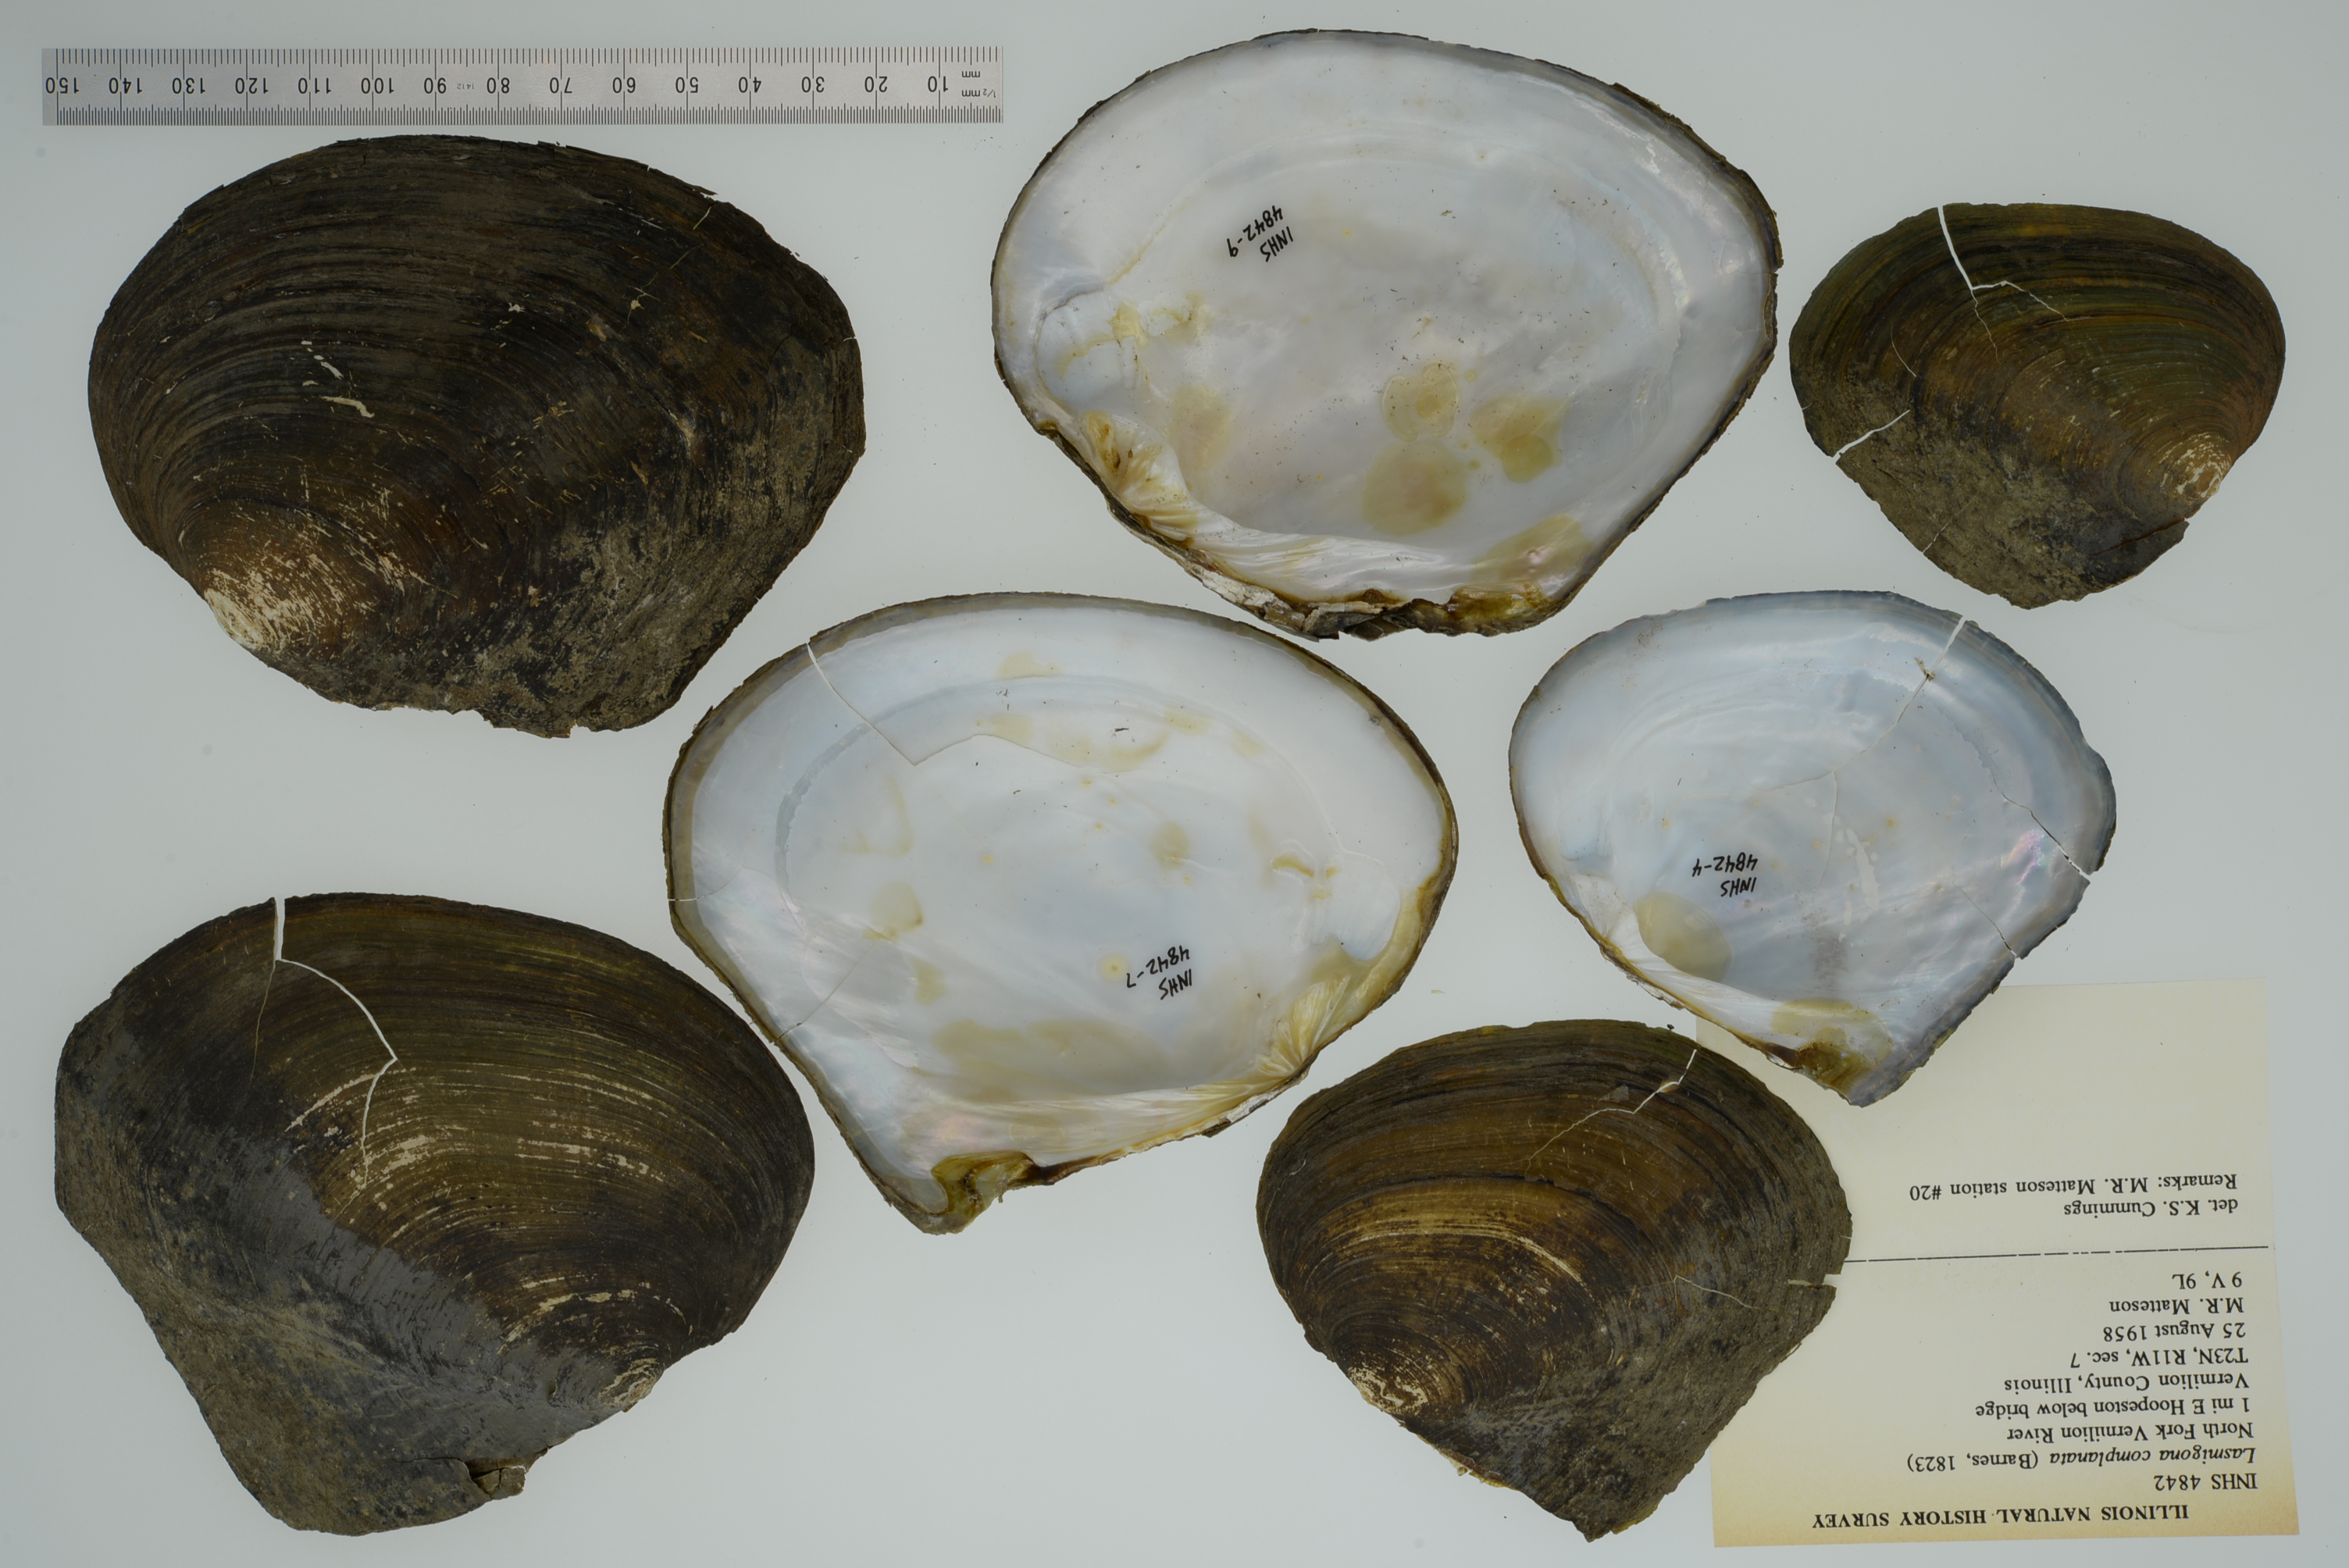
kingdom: Animalia
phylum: Mollusca
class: Bivalvia
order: Unionida
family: Unionidae
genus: Lasmigona
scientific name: Lasmigona complanata
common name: White heelsplitter
